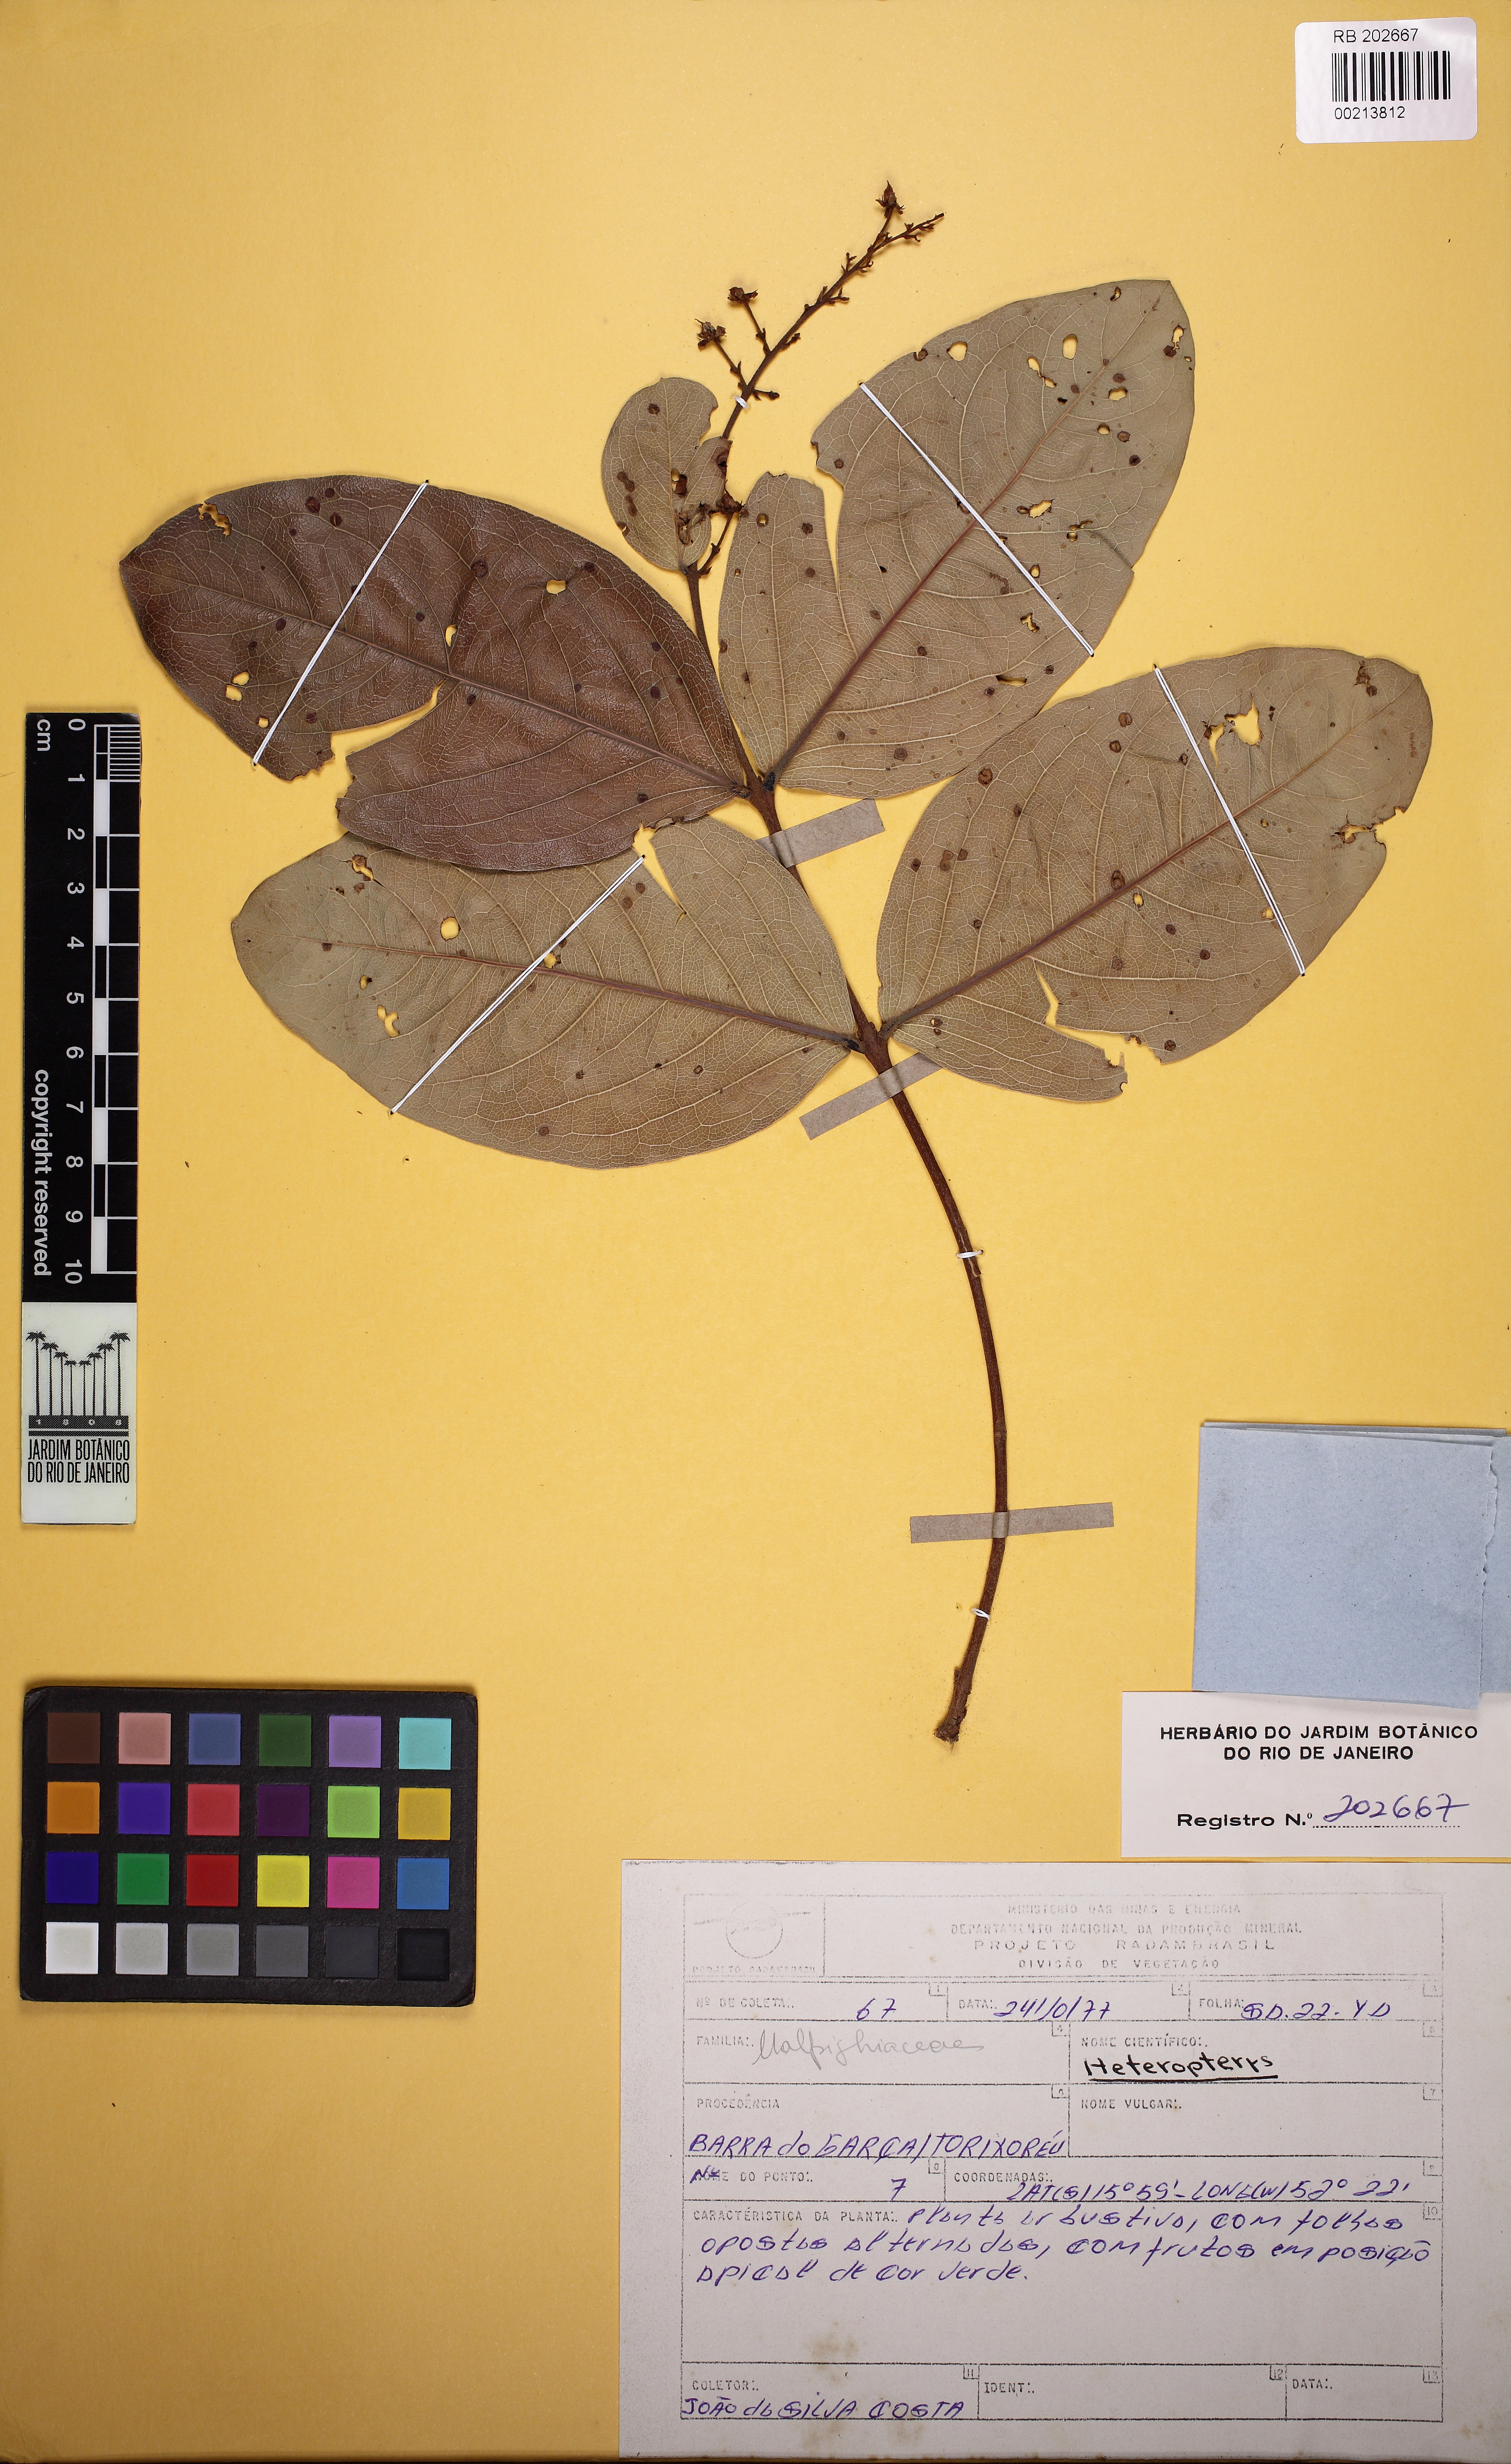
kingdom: Plantae
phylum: Tracheophyta
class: Magnoliopsida
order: Malpighiales
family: Malpighiaceae
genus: Heteropterys
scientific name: Heteropterys tocantinensis
